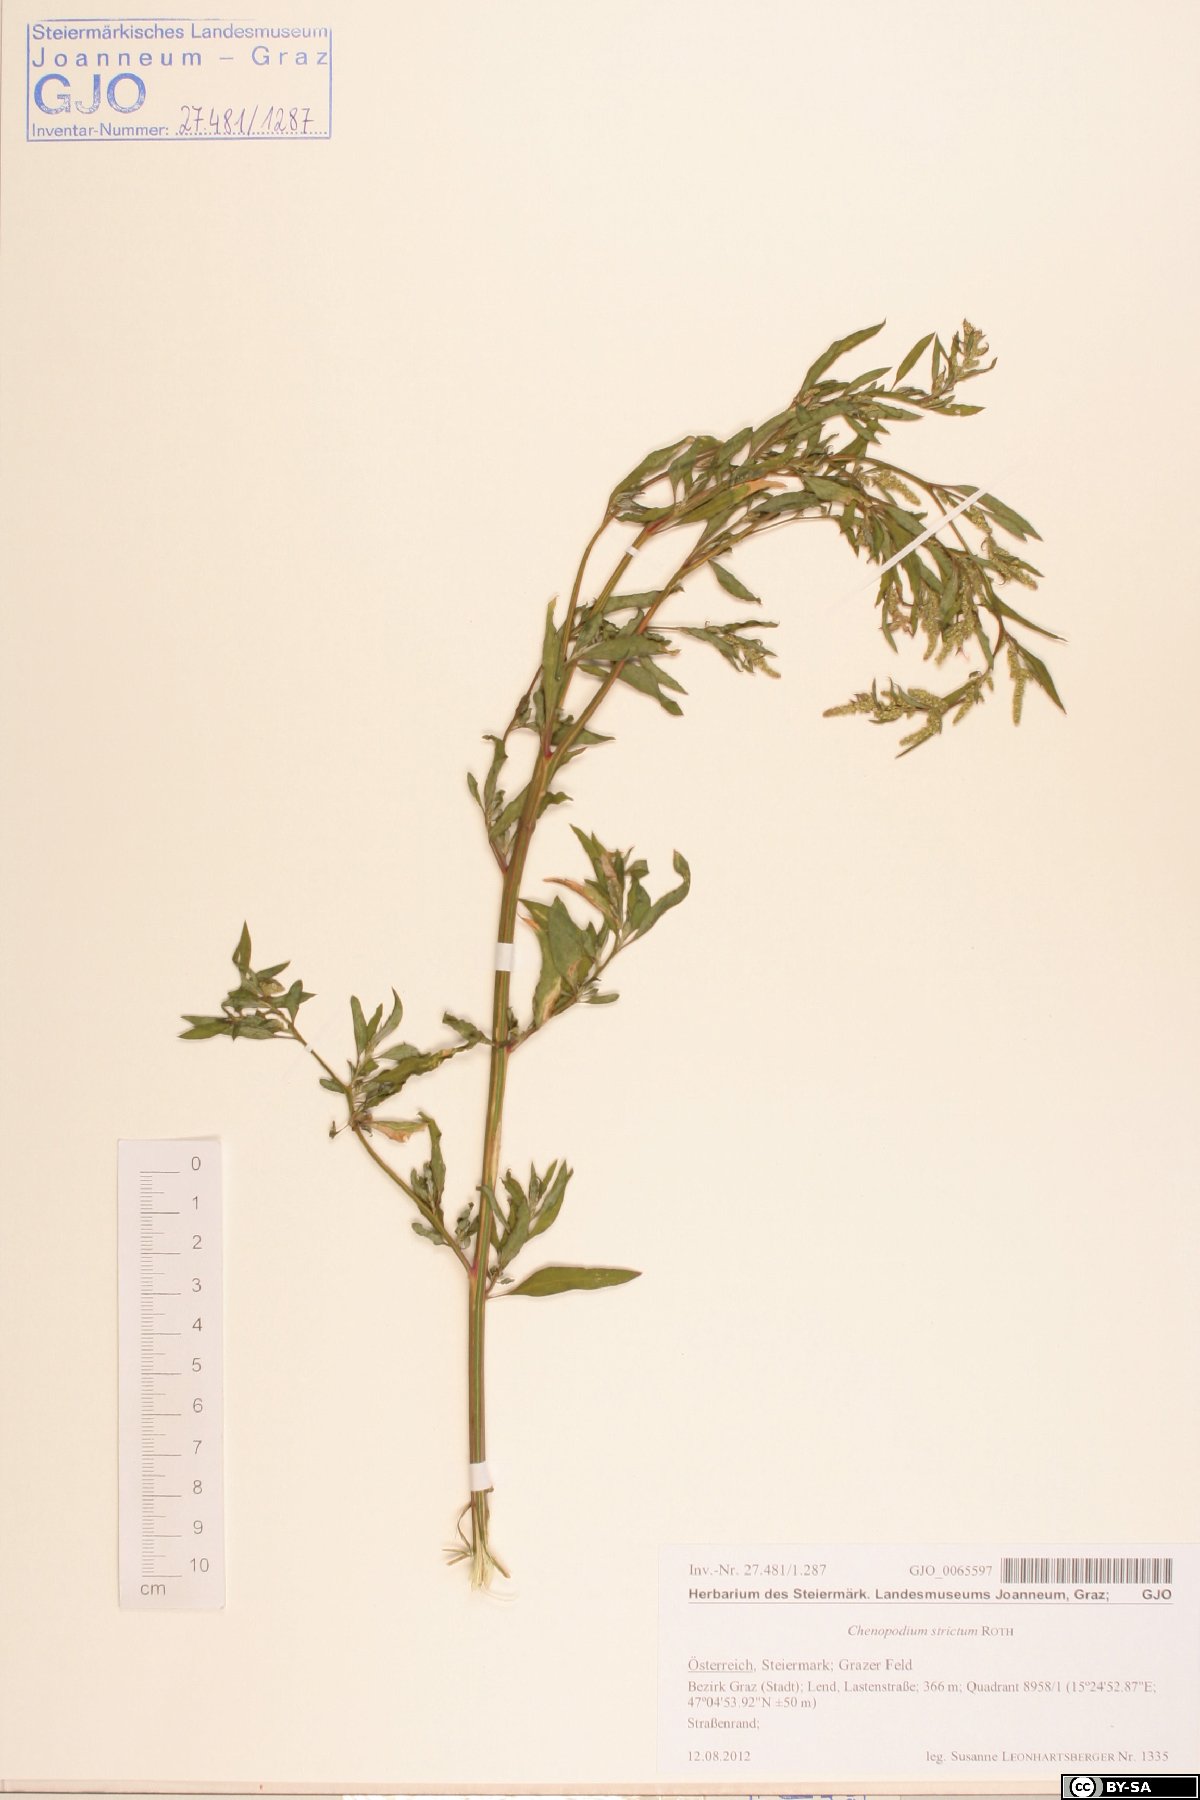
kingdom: Plantae
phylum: Tracheophyta
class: Magnoliopsida
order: Caryophyllales
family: Amaranthaceae
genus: Chenopodium
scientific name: Chenopodium album
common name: Fat-hen
